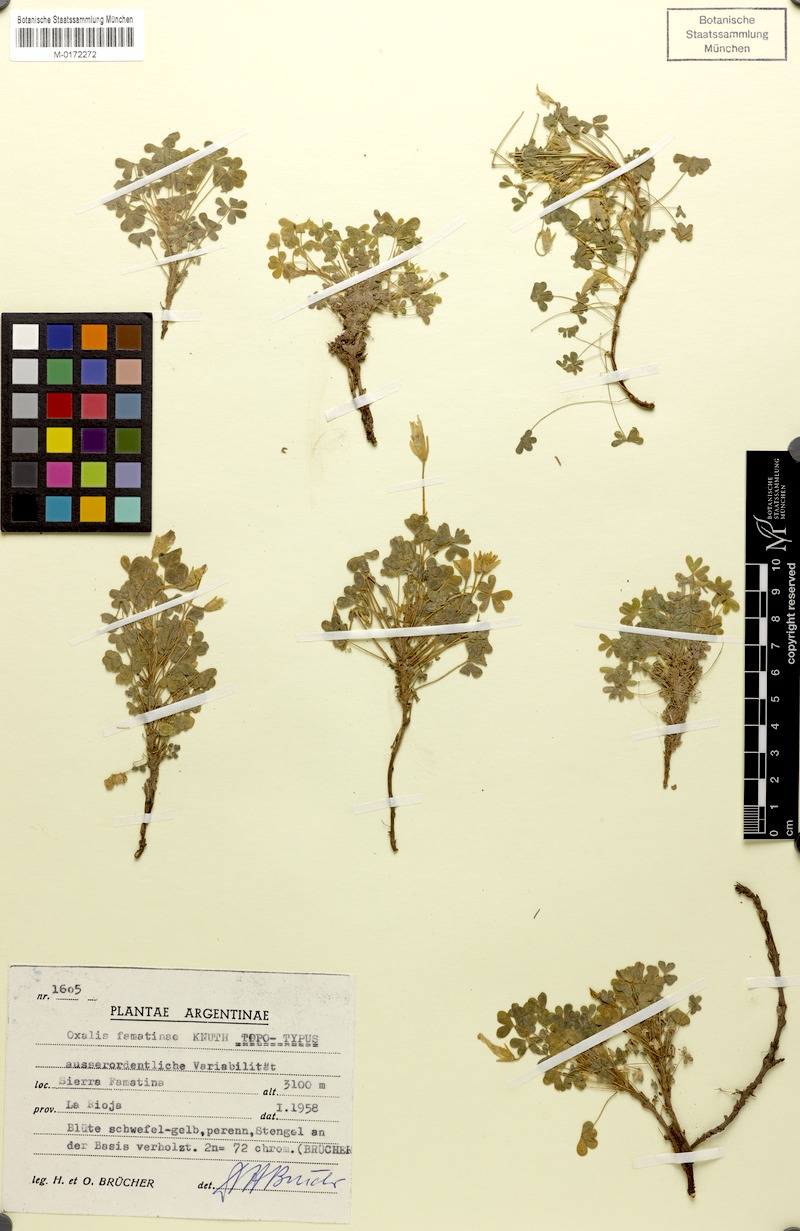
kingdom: Plantae
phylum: Tracheophyta
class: Magnoliopsida
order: Oxalidales
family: Oxalidaceae
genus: Oxalis
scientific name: Oxalis famatinae
